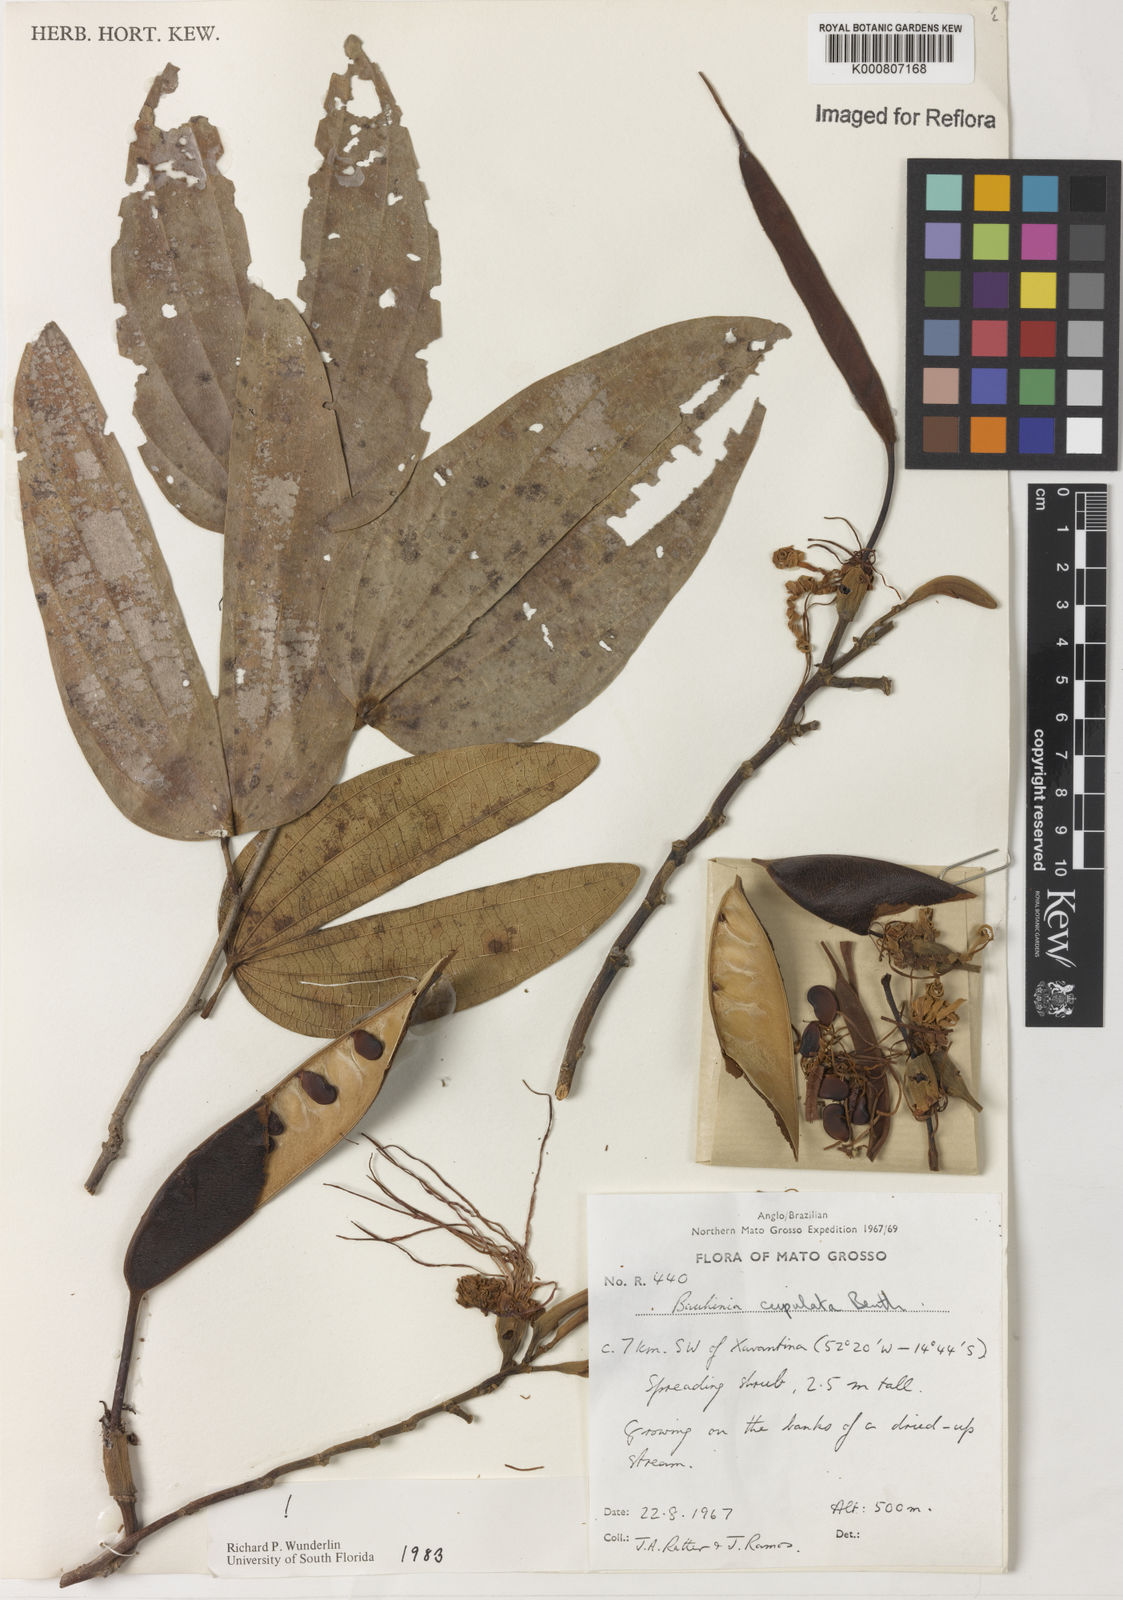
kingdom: Plantae
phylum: Tracheophyta
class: Magnoliopsida
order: Fabales
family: Fabaceae
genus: Bauhinia
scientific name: Bauhinia cupulata
